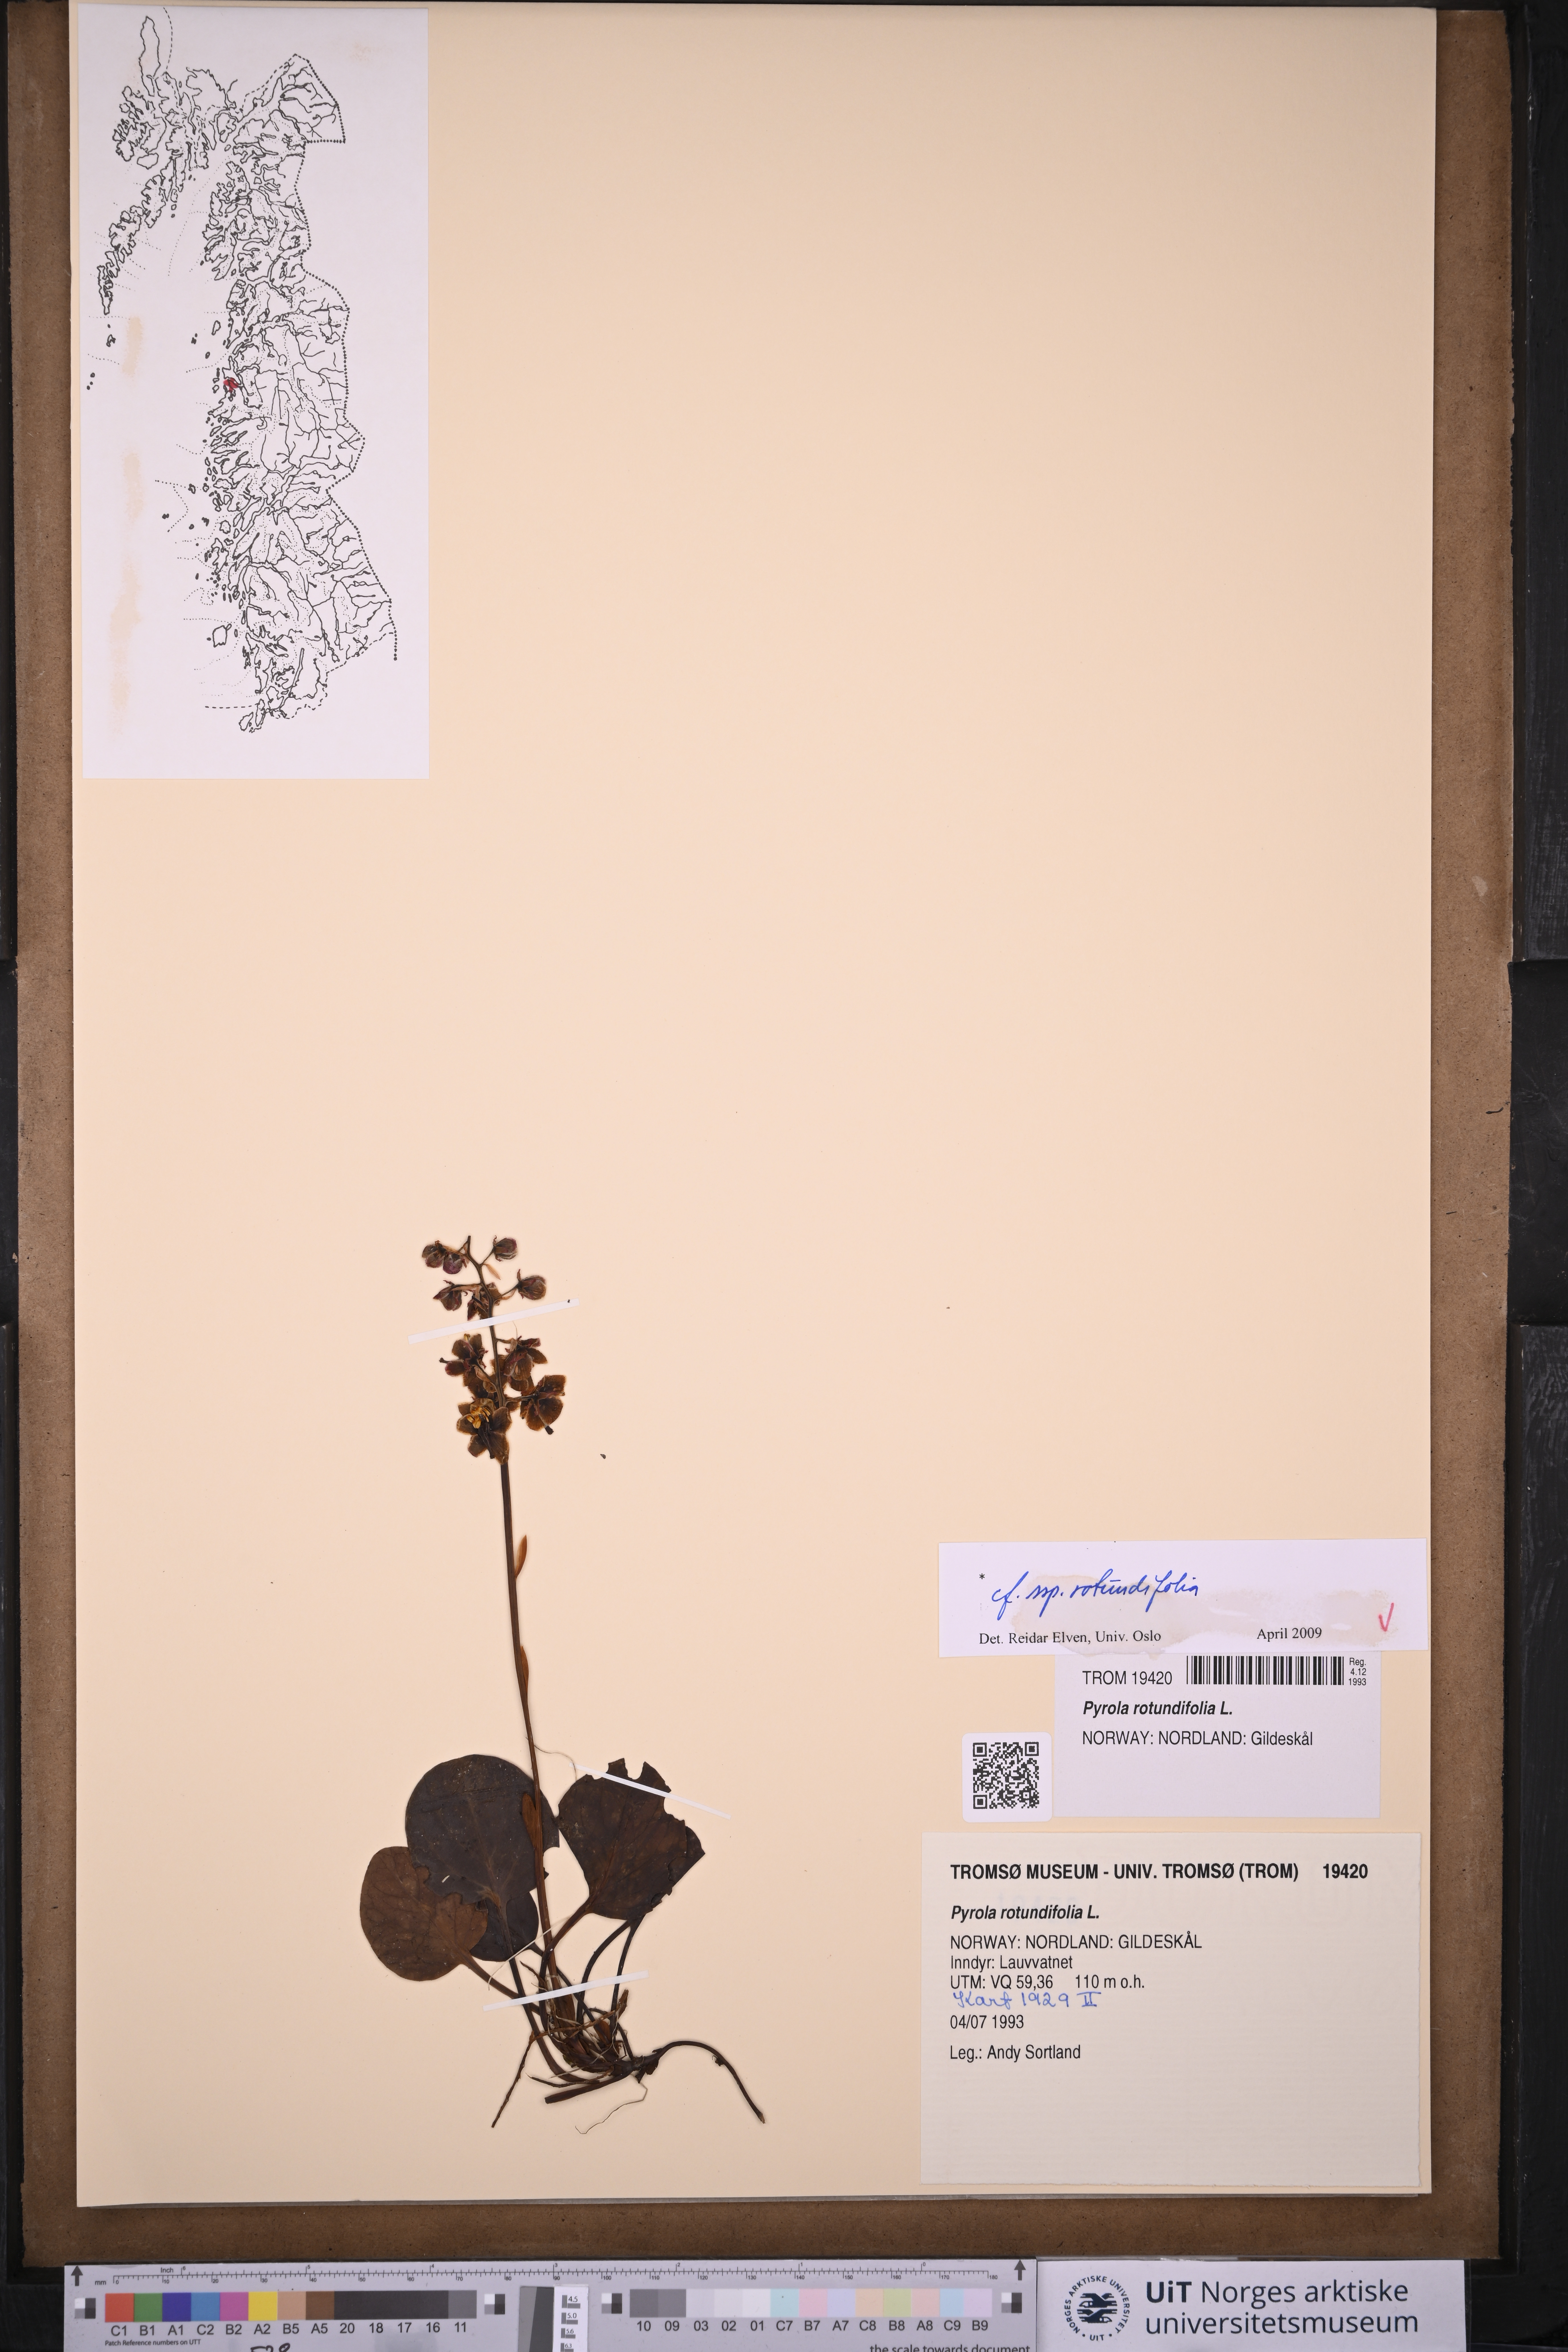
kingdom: Plantae
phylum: Tracheophyta
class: Magnoliopsida
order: Ericales
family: Ericaceae
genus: Pyrola
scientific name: Pyrola rotundifolia
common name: Round-leaved wintergreen
